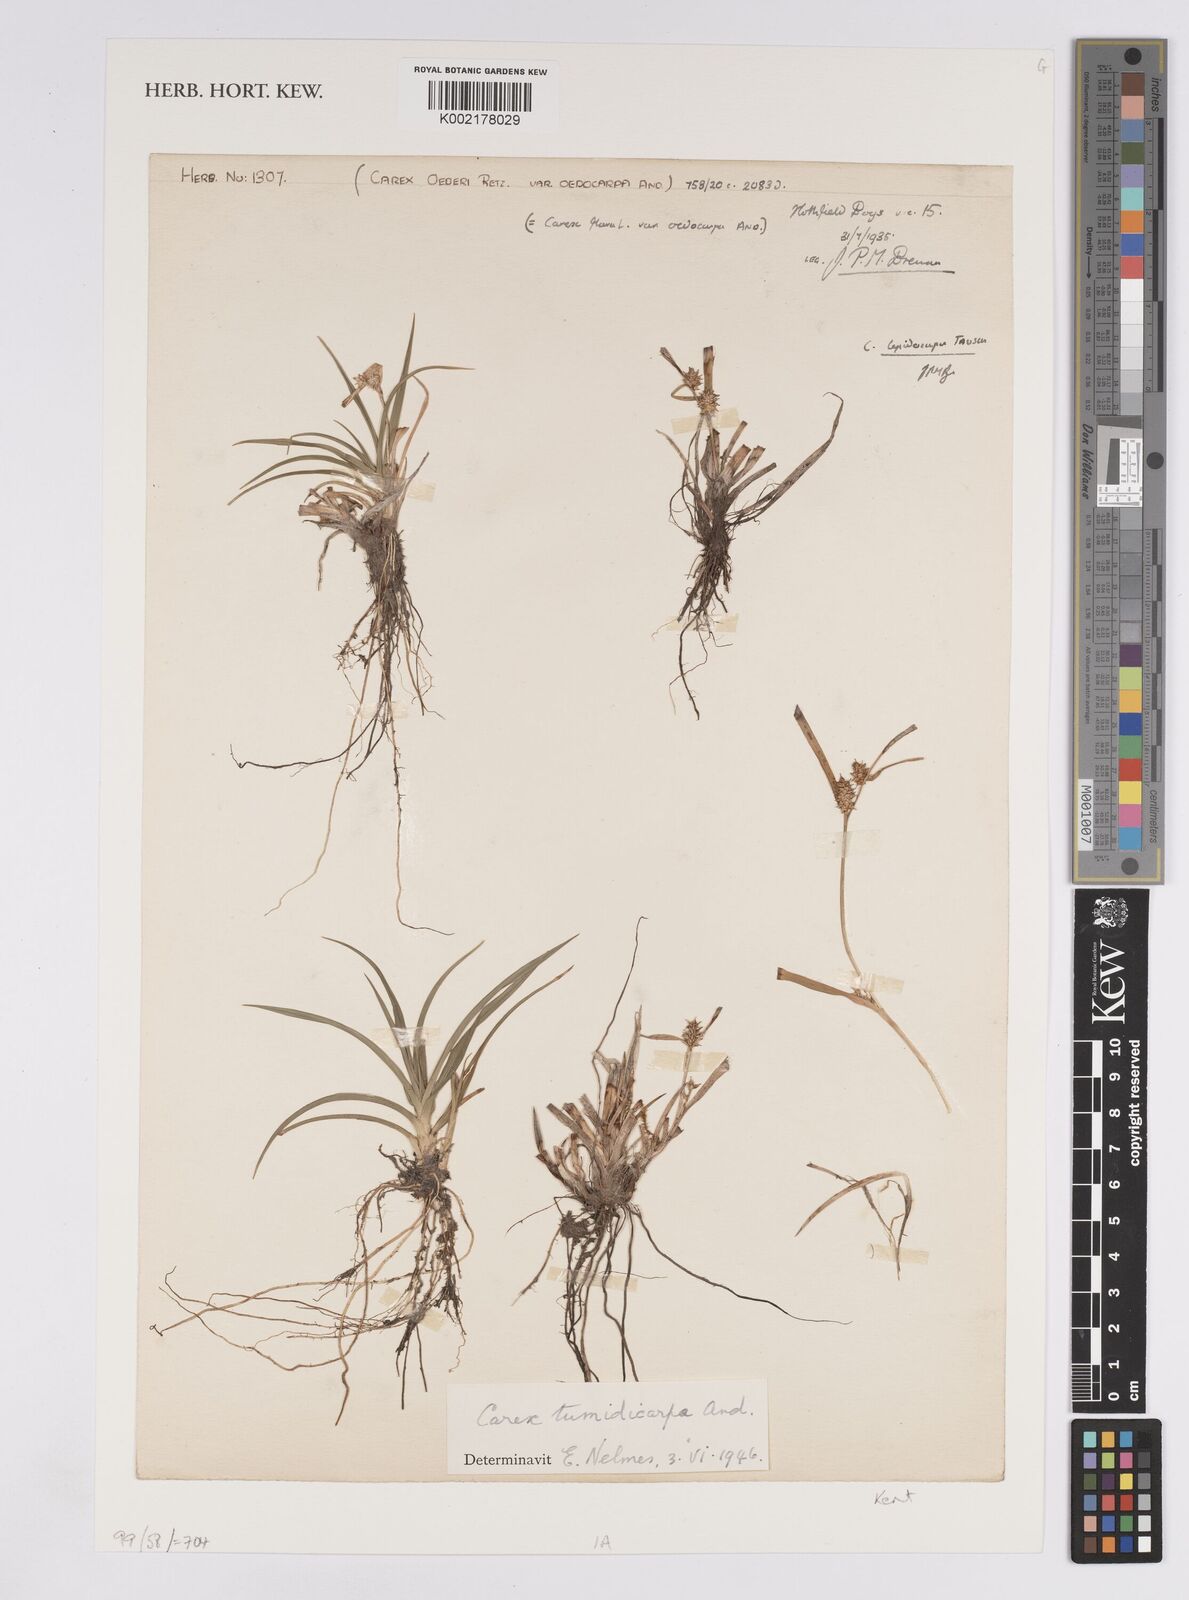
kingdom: Plantae
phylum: Tracheophyta
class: Liliopsida
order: Poales
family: Cyperaceae
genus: Carex
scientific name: Carex demissa
